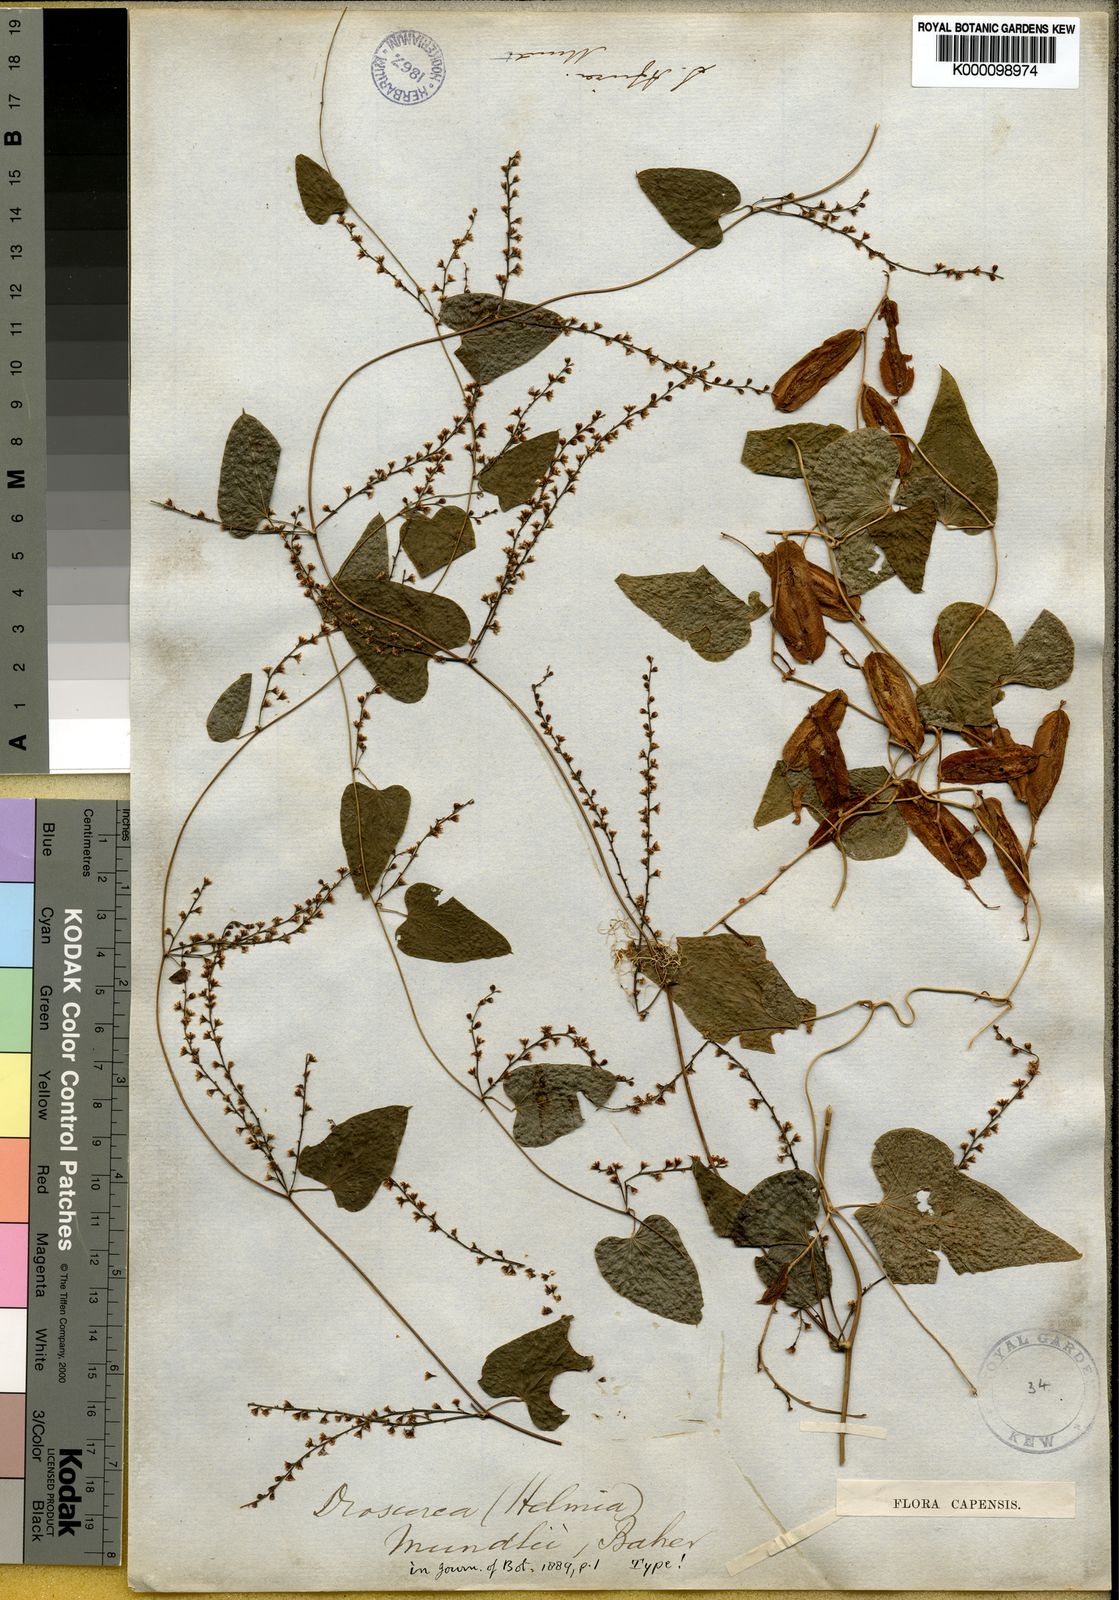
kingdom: Plantae
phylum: Tracheophyta
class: Liliopsida
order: Dioscoreales
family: Dioscoreaceae
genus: Dioscorea
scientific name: Dioscorea
